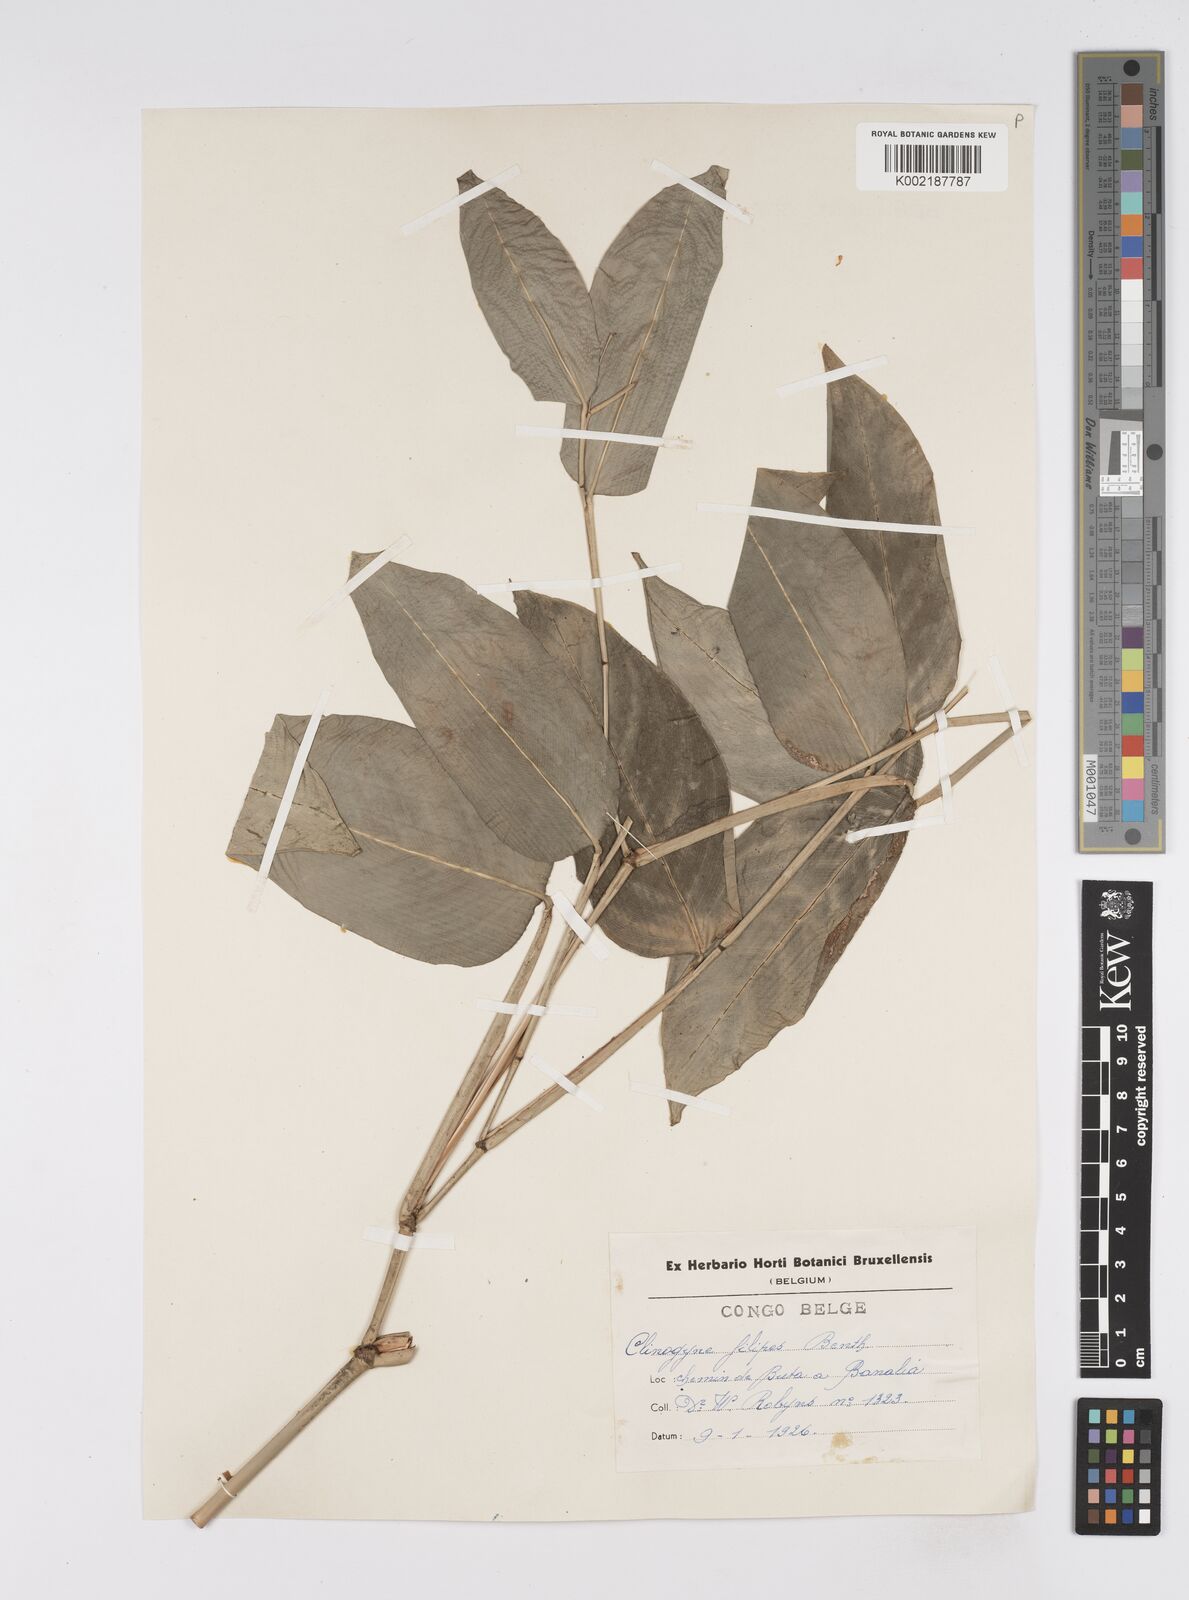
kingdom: Plantae
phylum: Tracheophyta
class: Liliopsida
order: Zingiberales
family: Marantaceae
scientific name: Marantaceae
